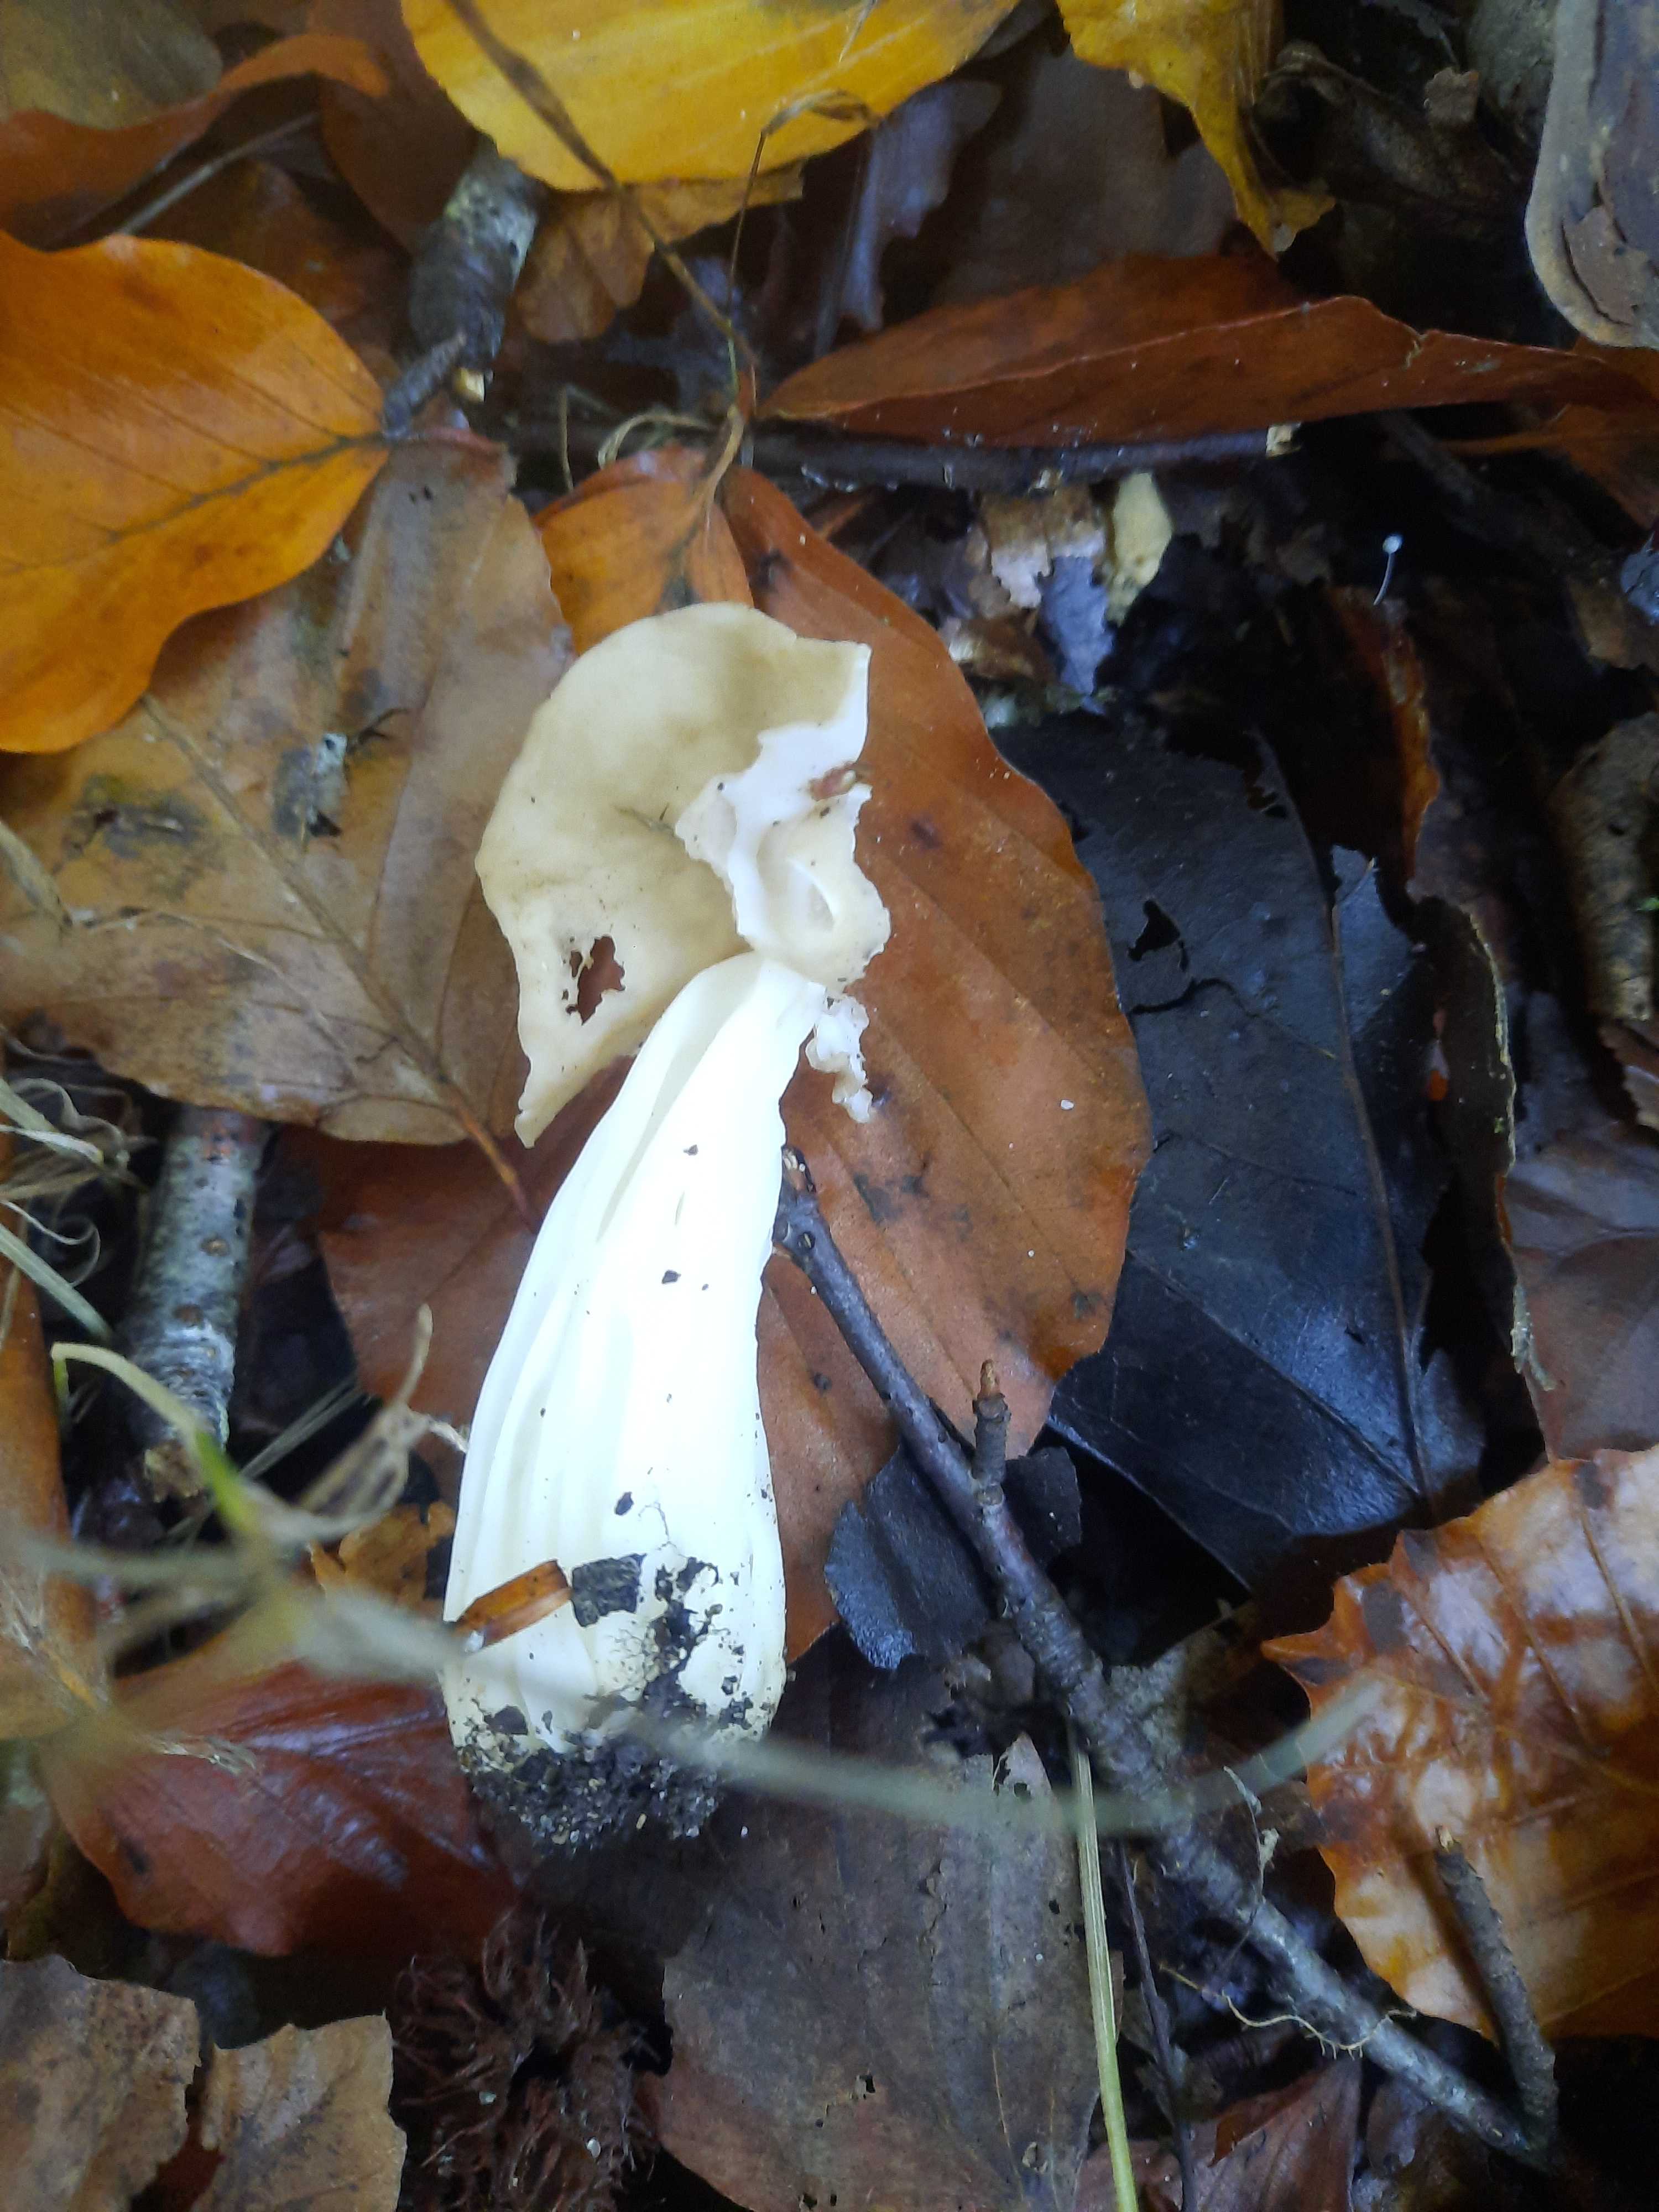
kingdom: Fungi
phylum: Ascomycota
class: Pezizomycetes
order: Pezizales
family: Helvellaceae
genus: Helvella
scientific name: Helvella crispa
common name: kruset foldhat
